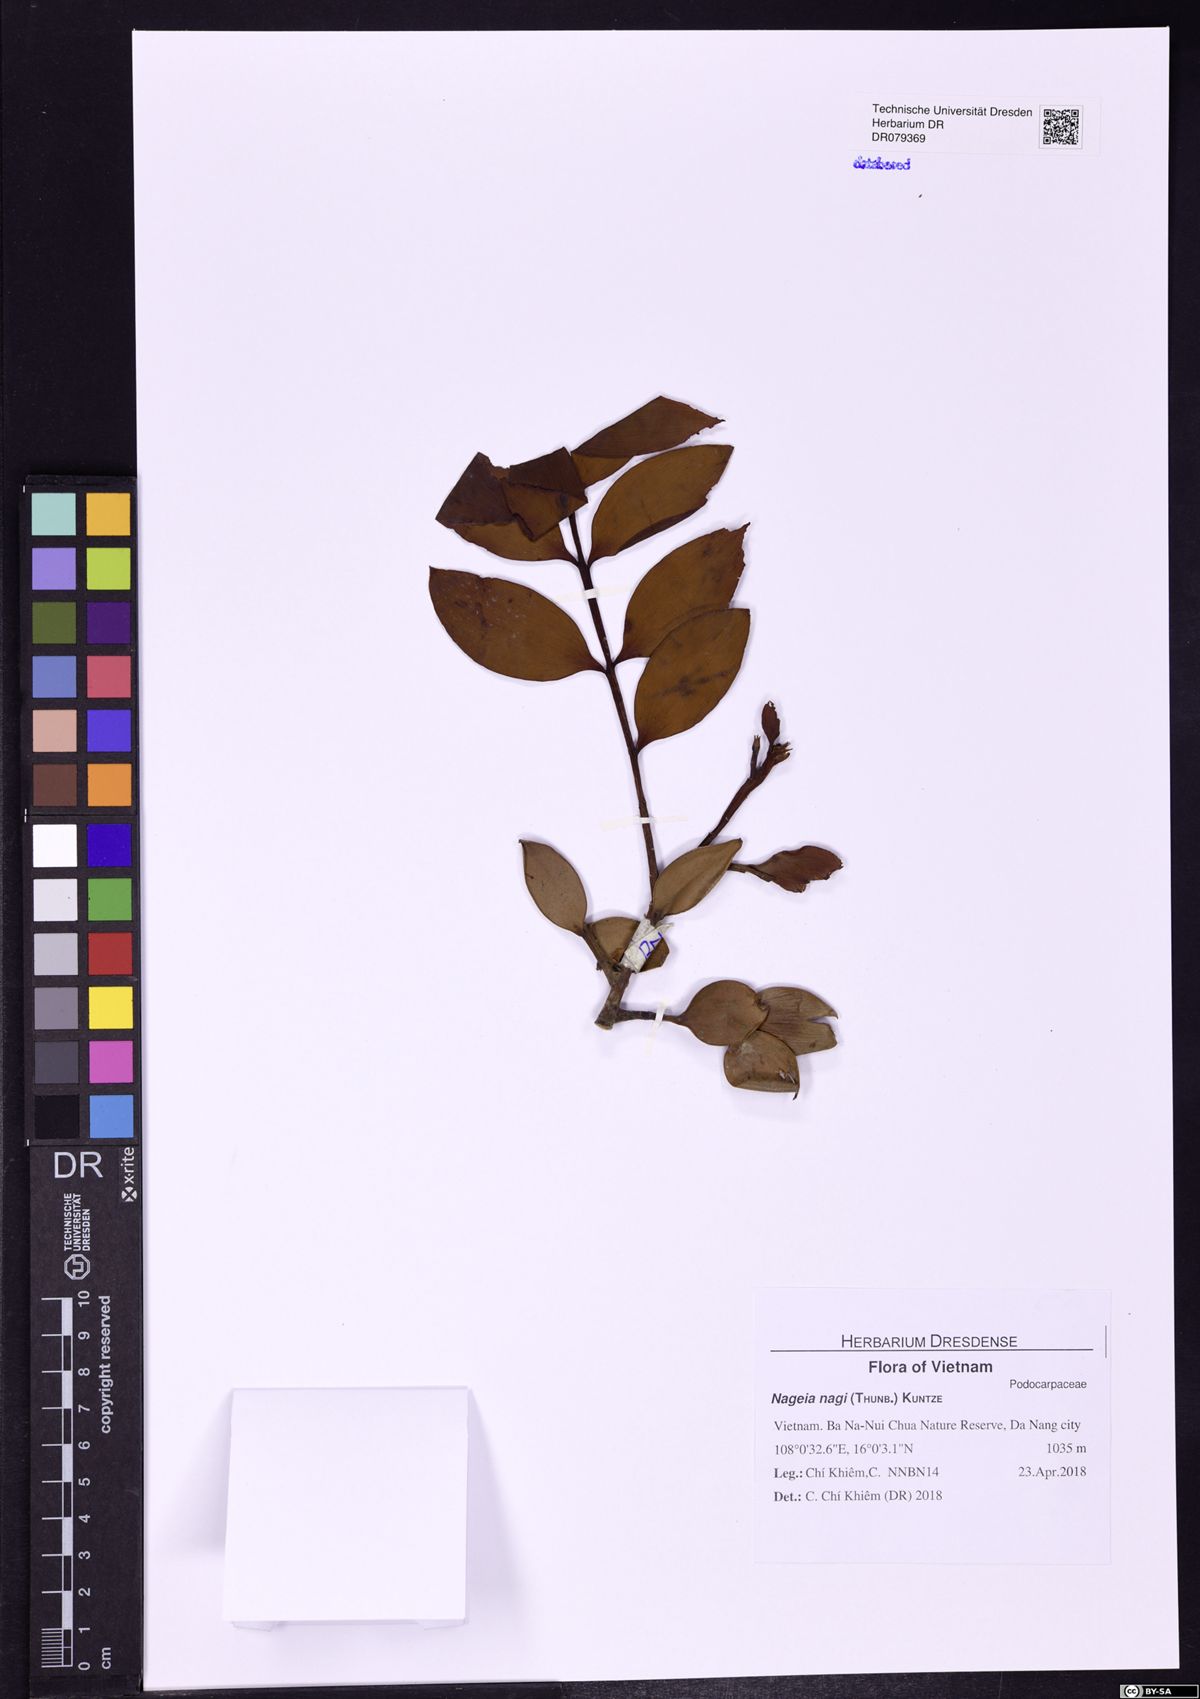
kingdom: Plantae
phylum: Tracheophyta
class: Pinopsida
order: Pinales
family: Podocarpaceae
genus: Nageia
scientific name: Nageia nagi
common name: Kaphal
